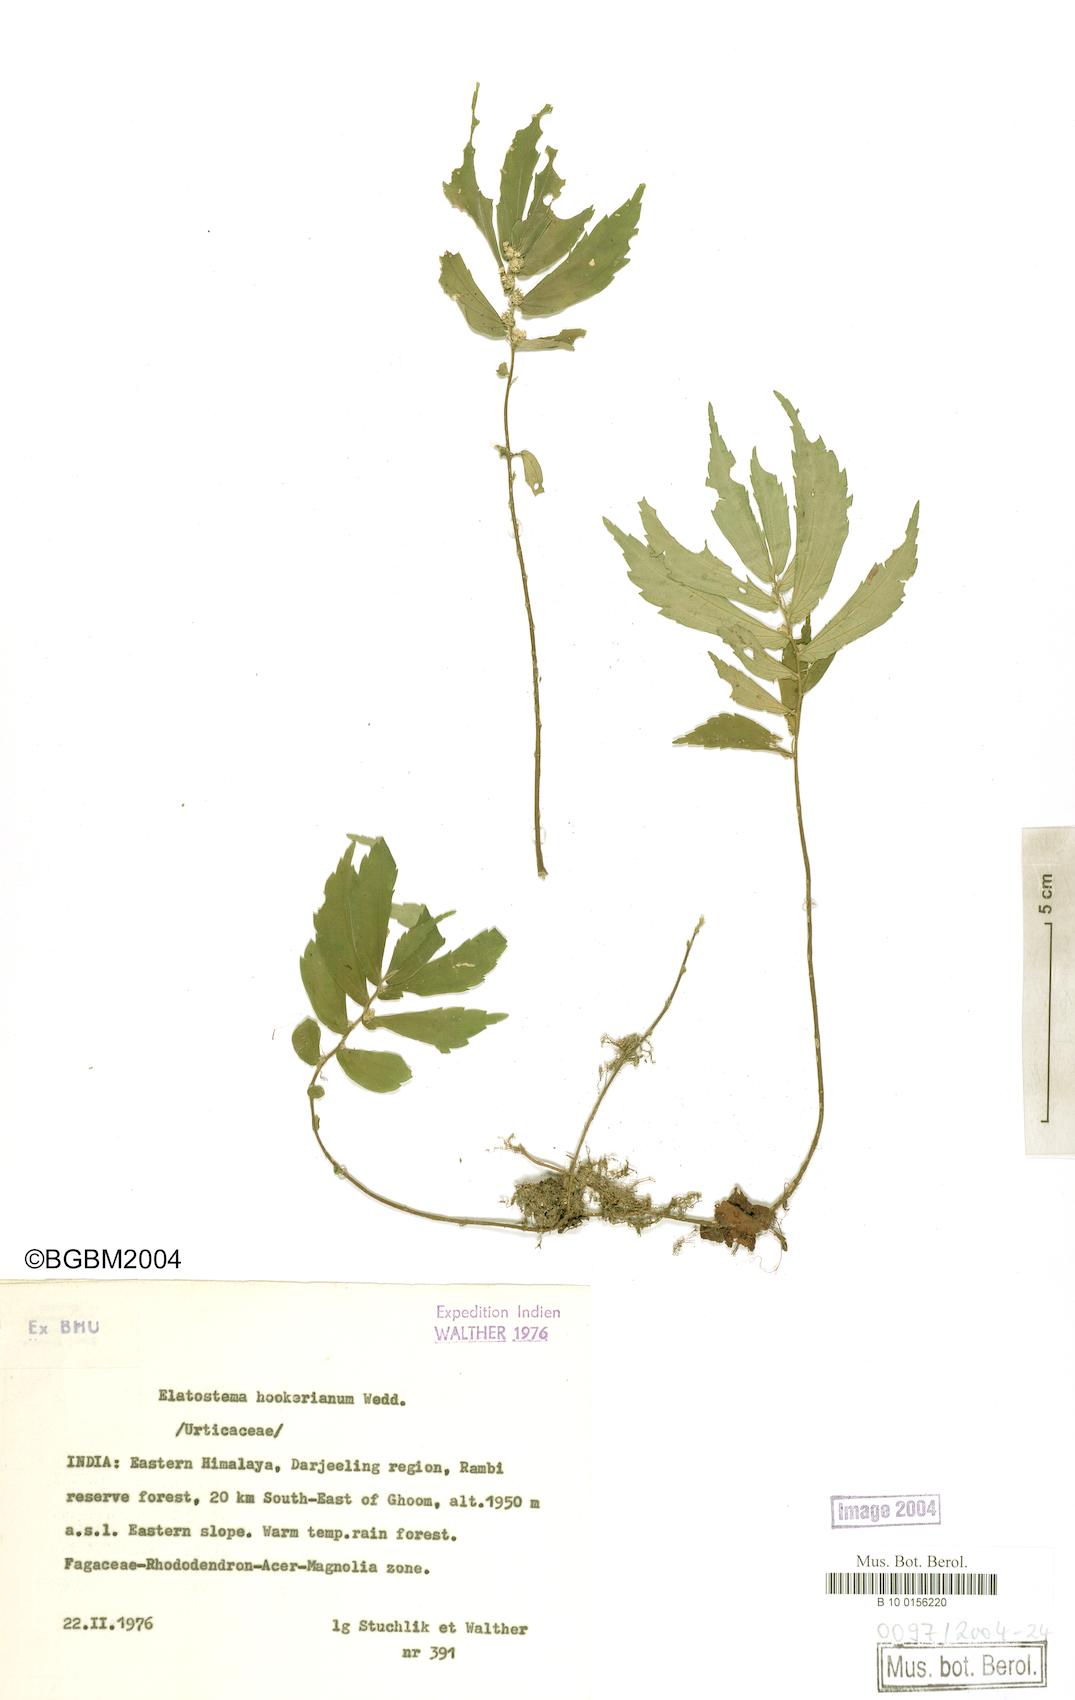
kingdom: Plantae
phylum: Tracheophyta
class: Magnoliopsida
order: Rosales
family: Urticaceae
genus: Elatostema
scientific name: Elatostema hookerianum
